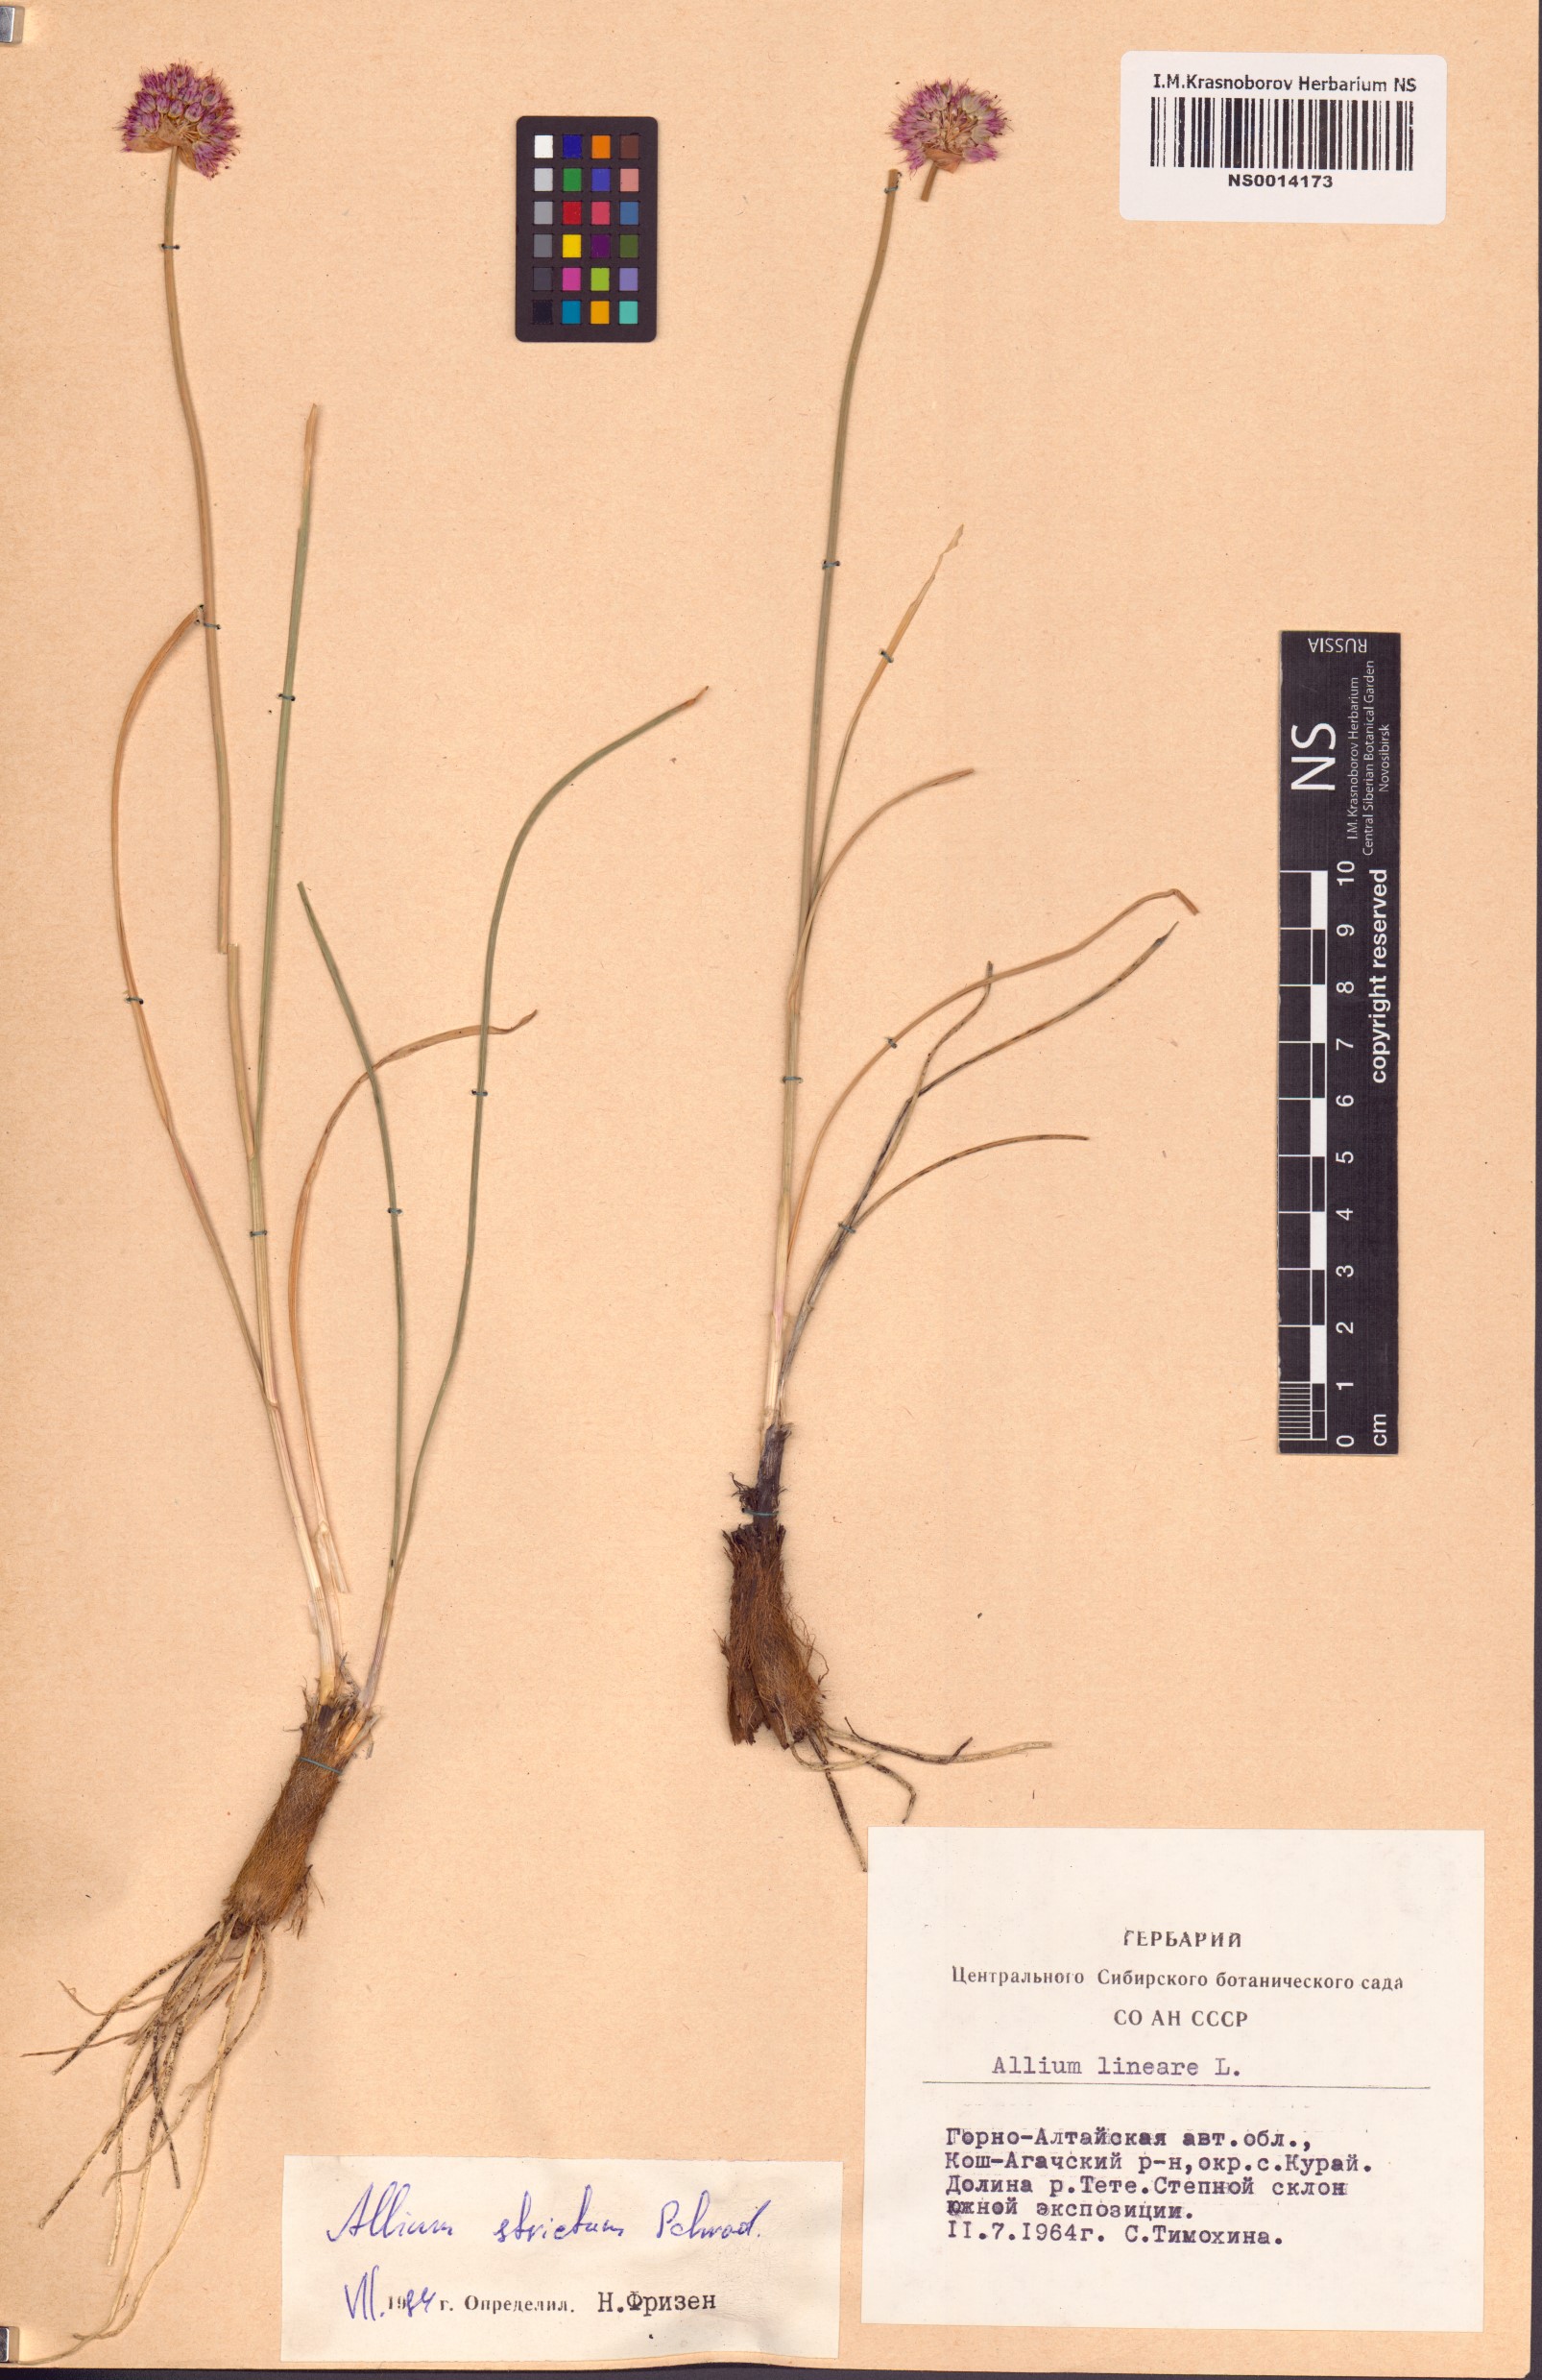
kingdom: Plantae
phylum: Tracheophyta
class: Liliopsida
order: Asparagales
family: Amaryllidaceae
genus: Allium
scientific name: Allium strictum
